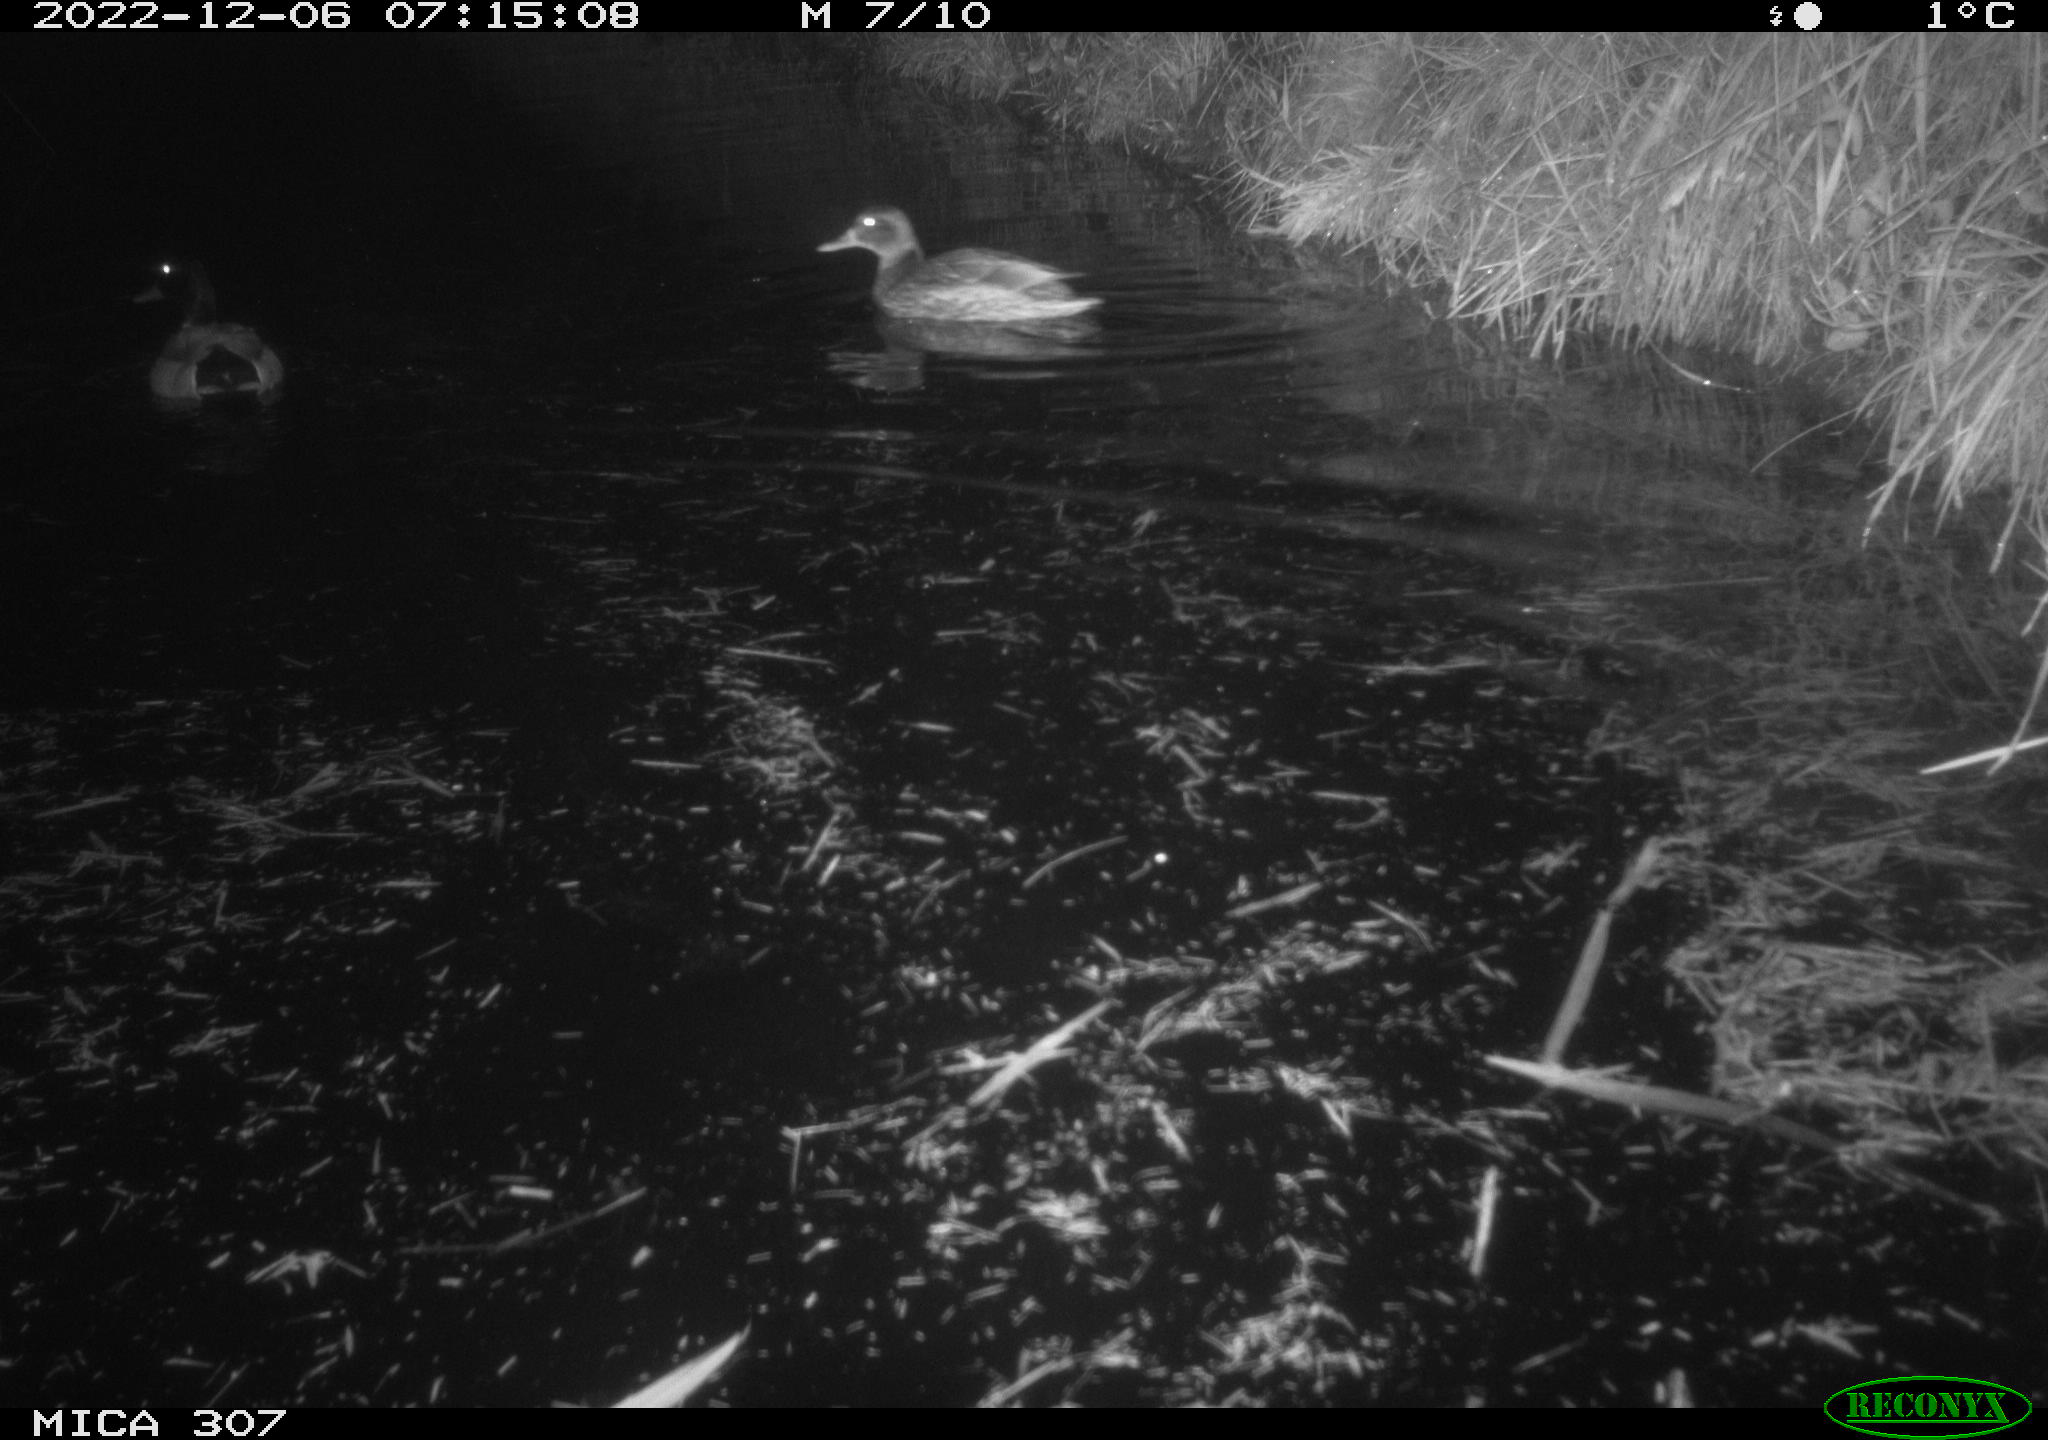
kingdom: Animalia
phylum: Chordata
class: Aves
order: Anseriformes
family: Anatidae
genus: Anas
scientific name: Anas
